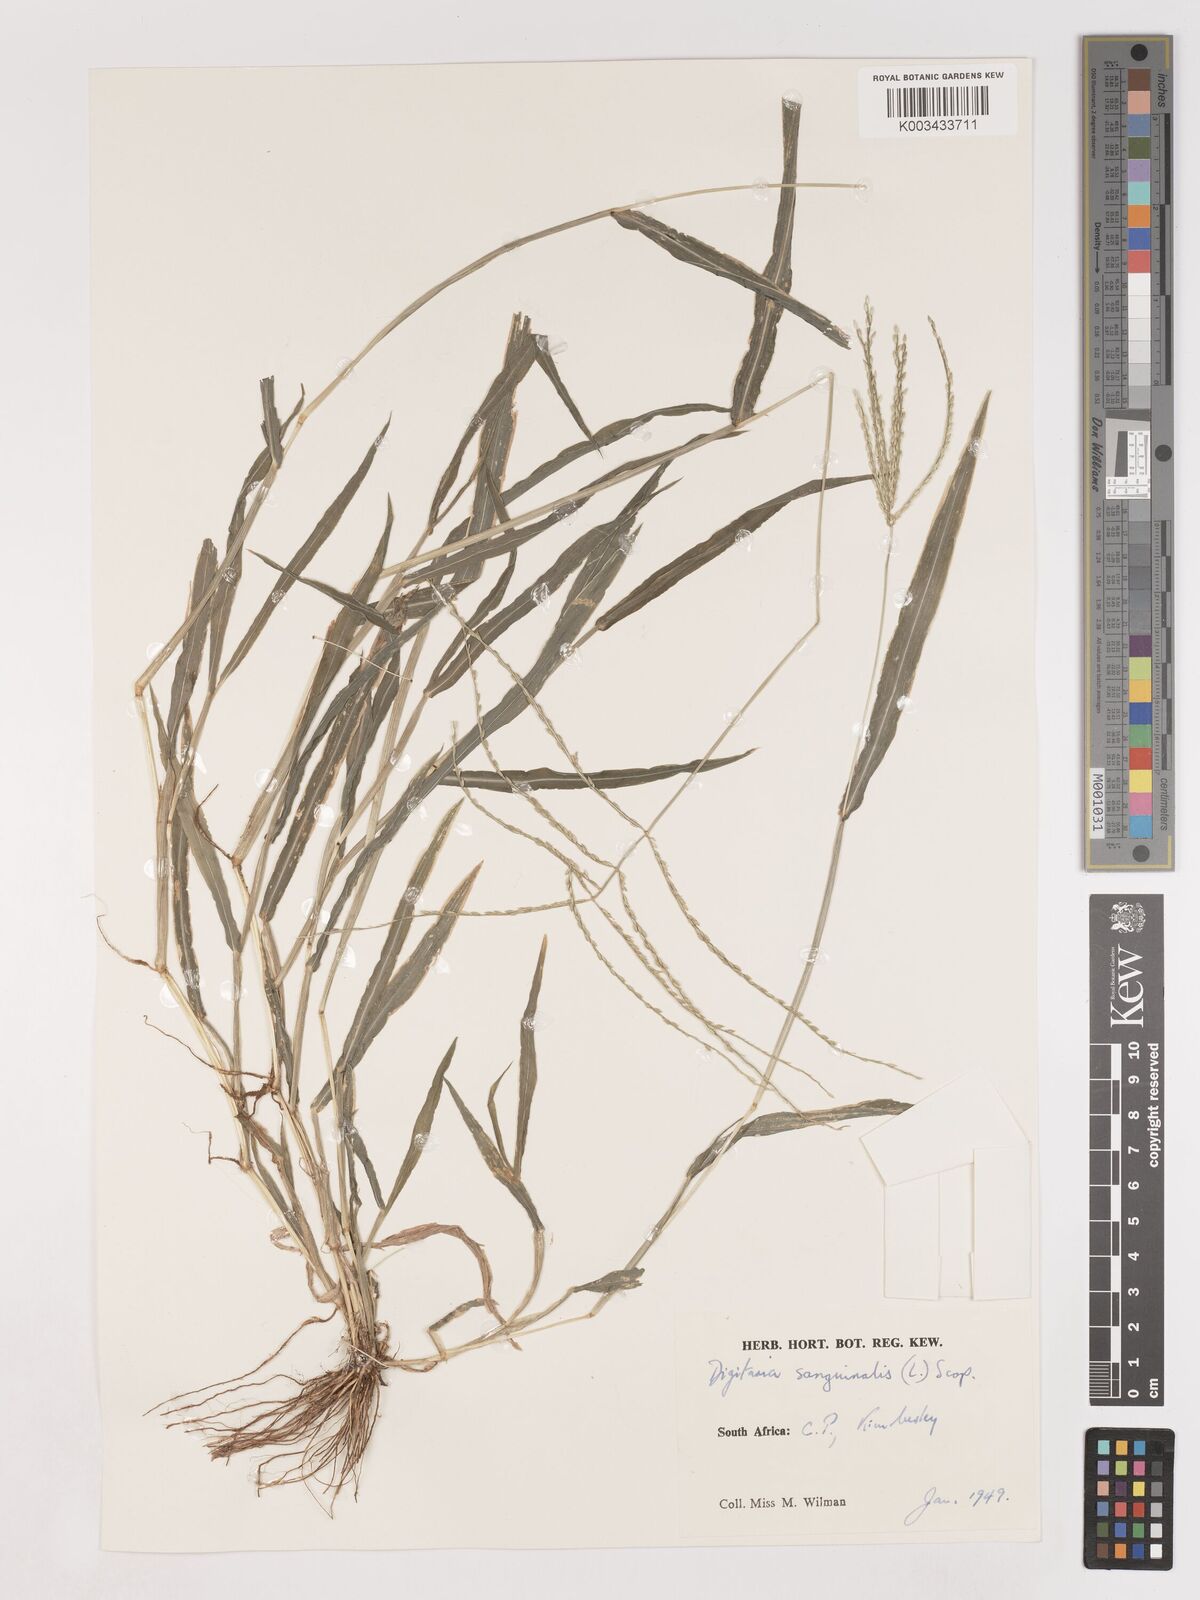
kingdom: Plantae
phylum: Tracheophyta
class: Liliopsida
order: Poales
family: Poaceae
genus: Digitaria
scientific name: Digitaria sanguinalis
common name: Hairy crabgrass
